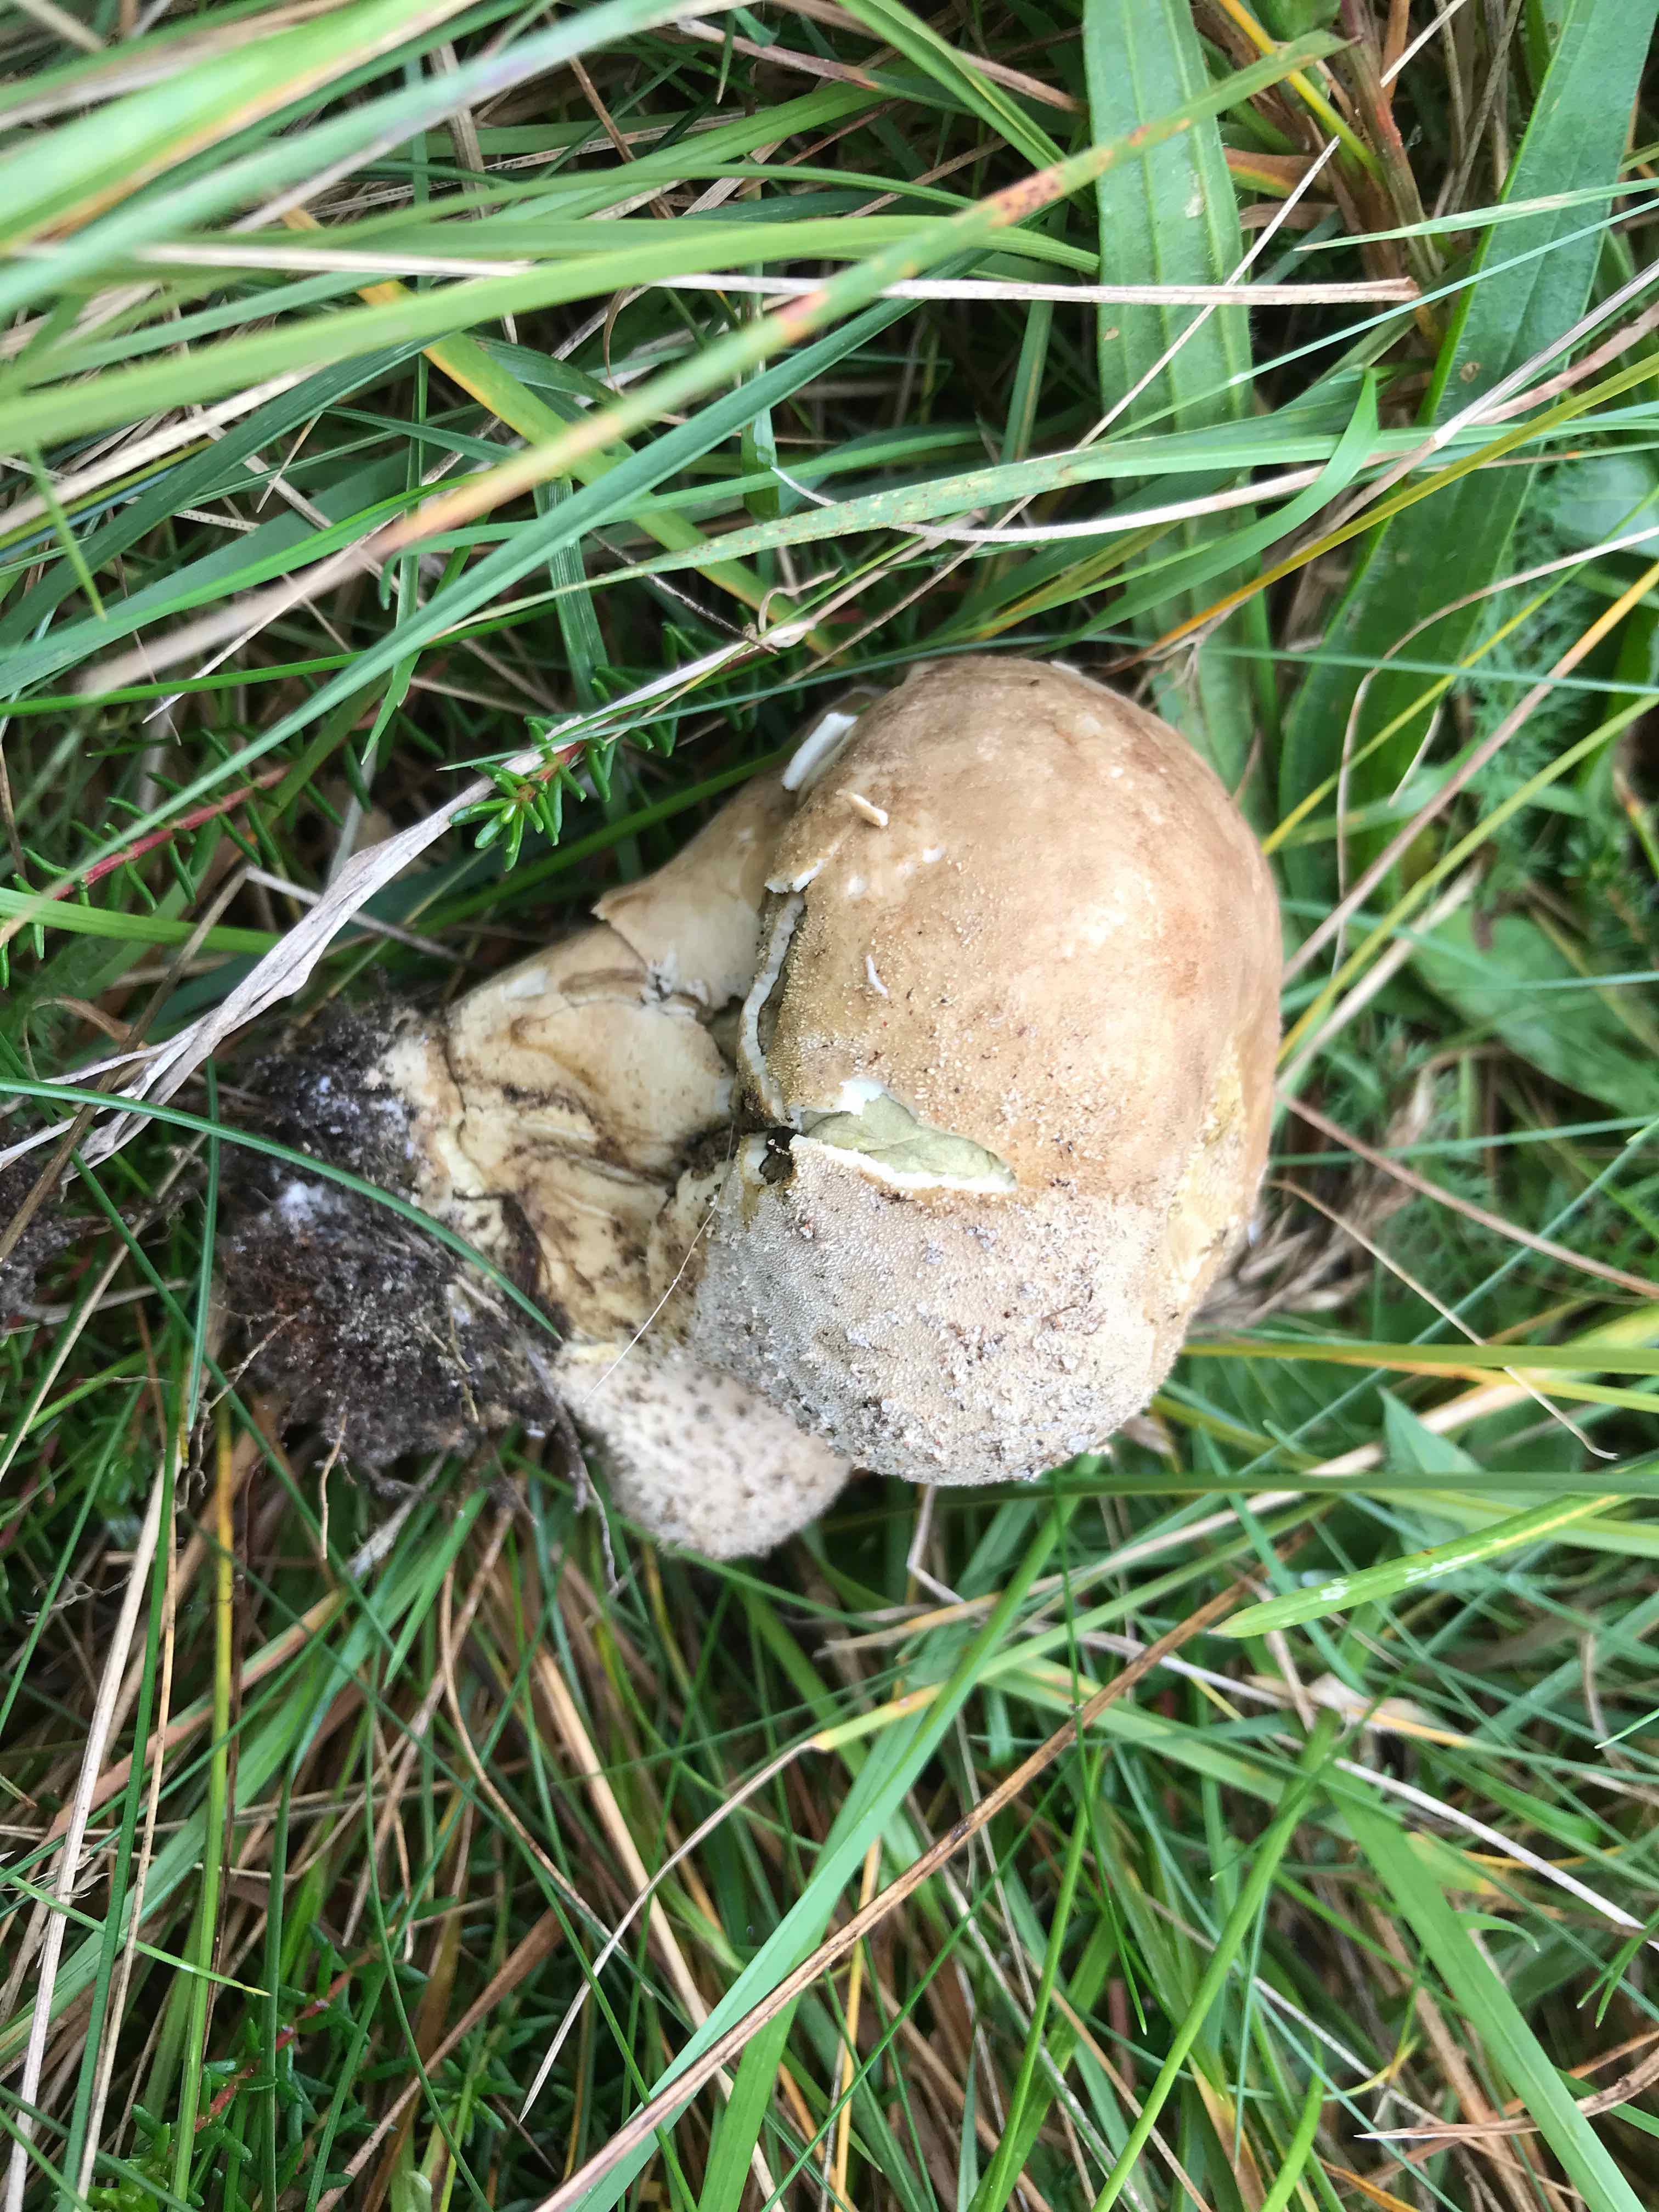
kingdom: Fungi
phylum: Basidiomycota
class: Agaricomycetes
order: Agaricales
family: Lycoperdaceae
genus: Bovistella
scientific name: Bovistella utriformis
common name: skællet støvbold
